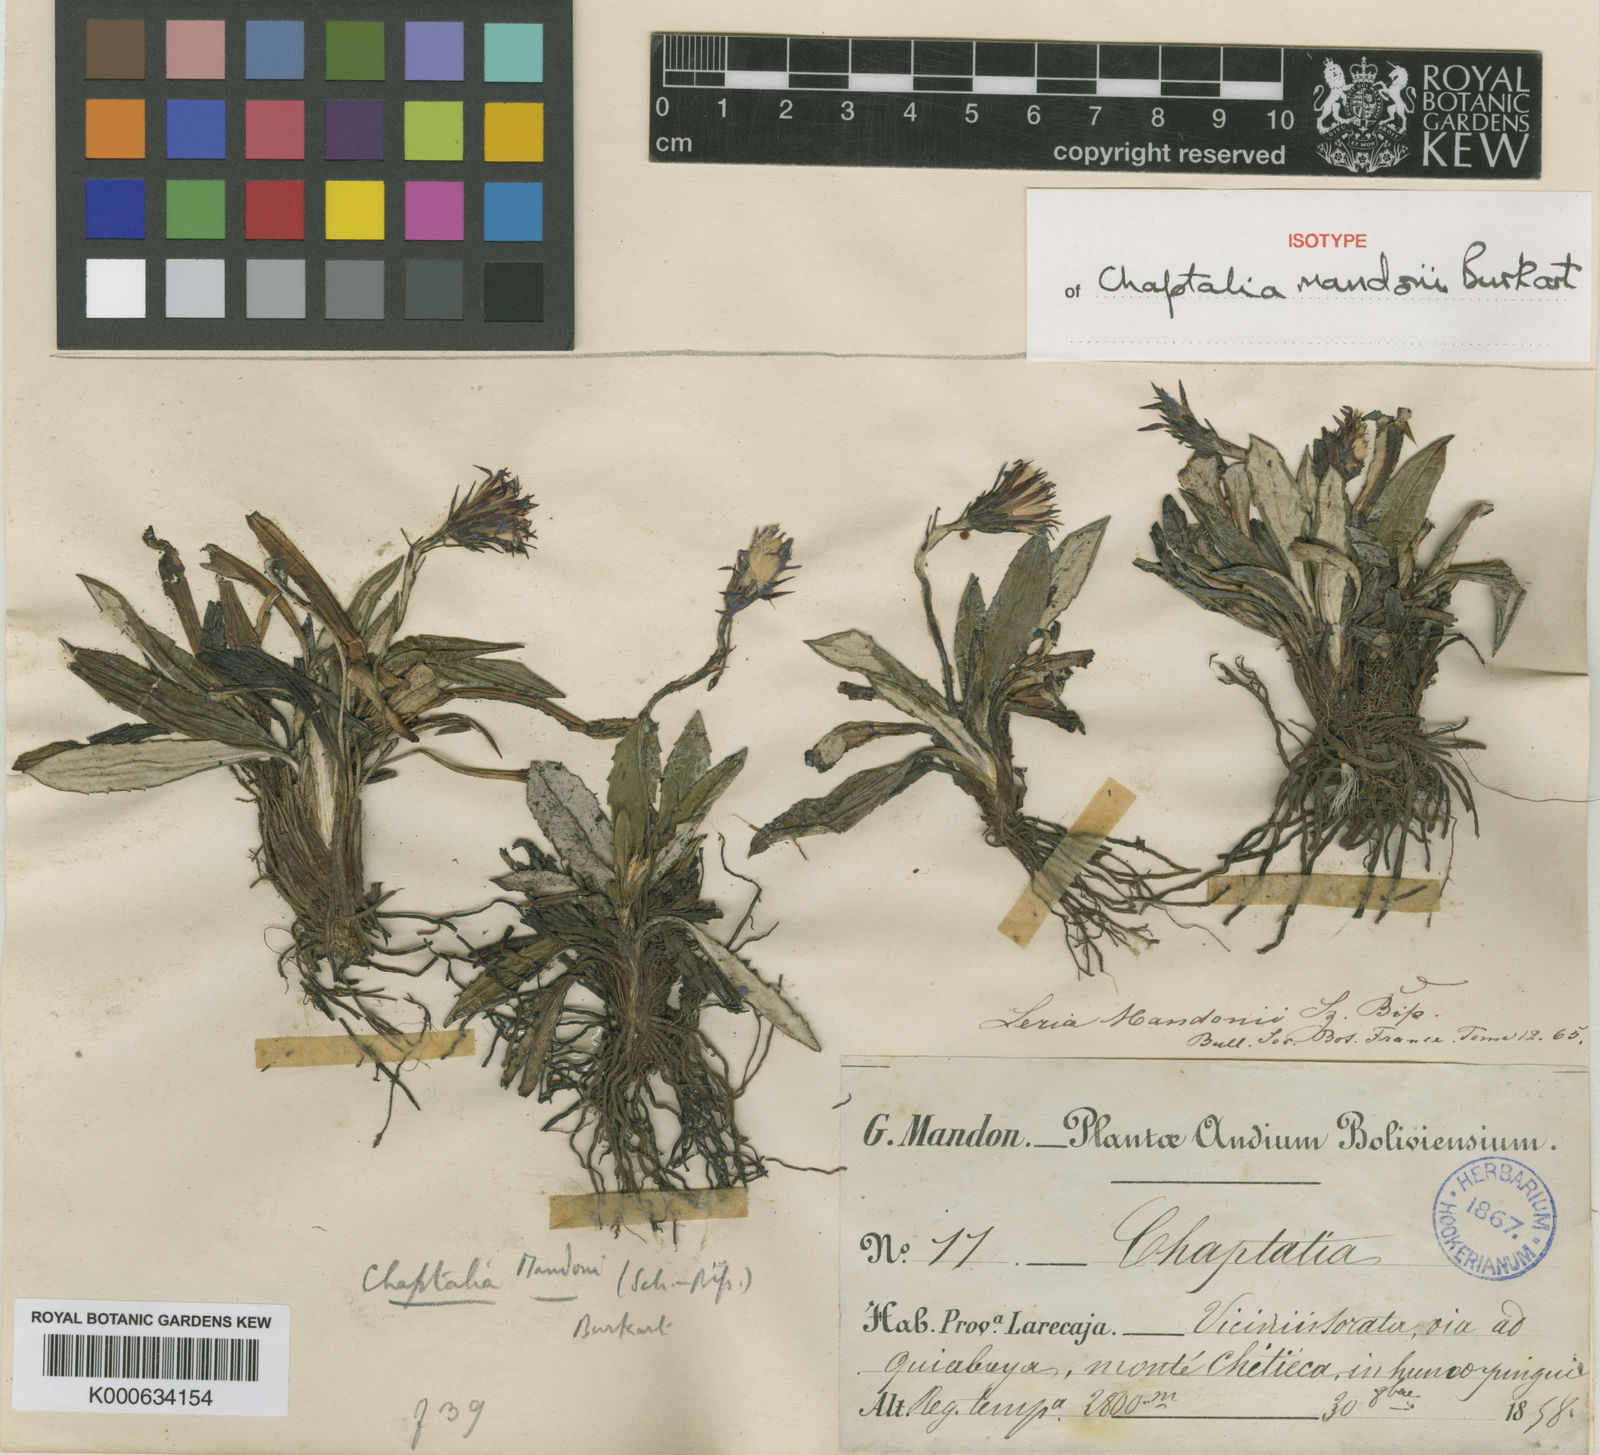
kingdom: Plantae
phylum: Tracheophyta
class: Magnoliopsida
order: Asterales
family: Asteraceae
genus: Chaptalia
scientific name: Chaptalia mandonii
